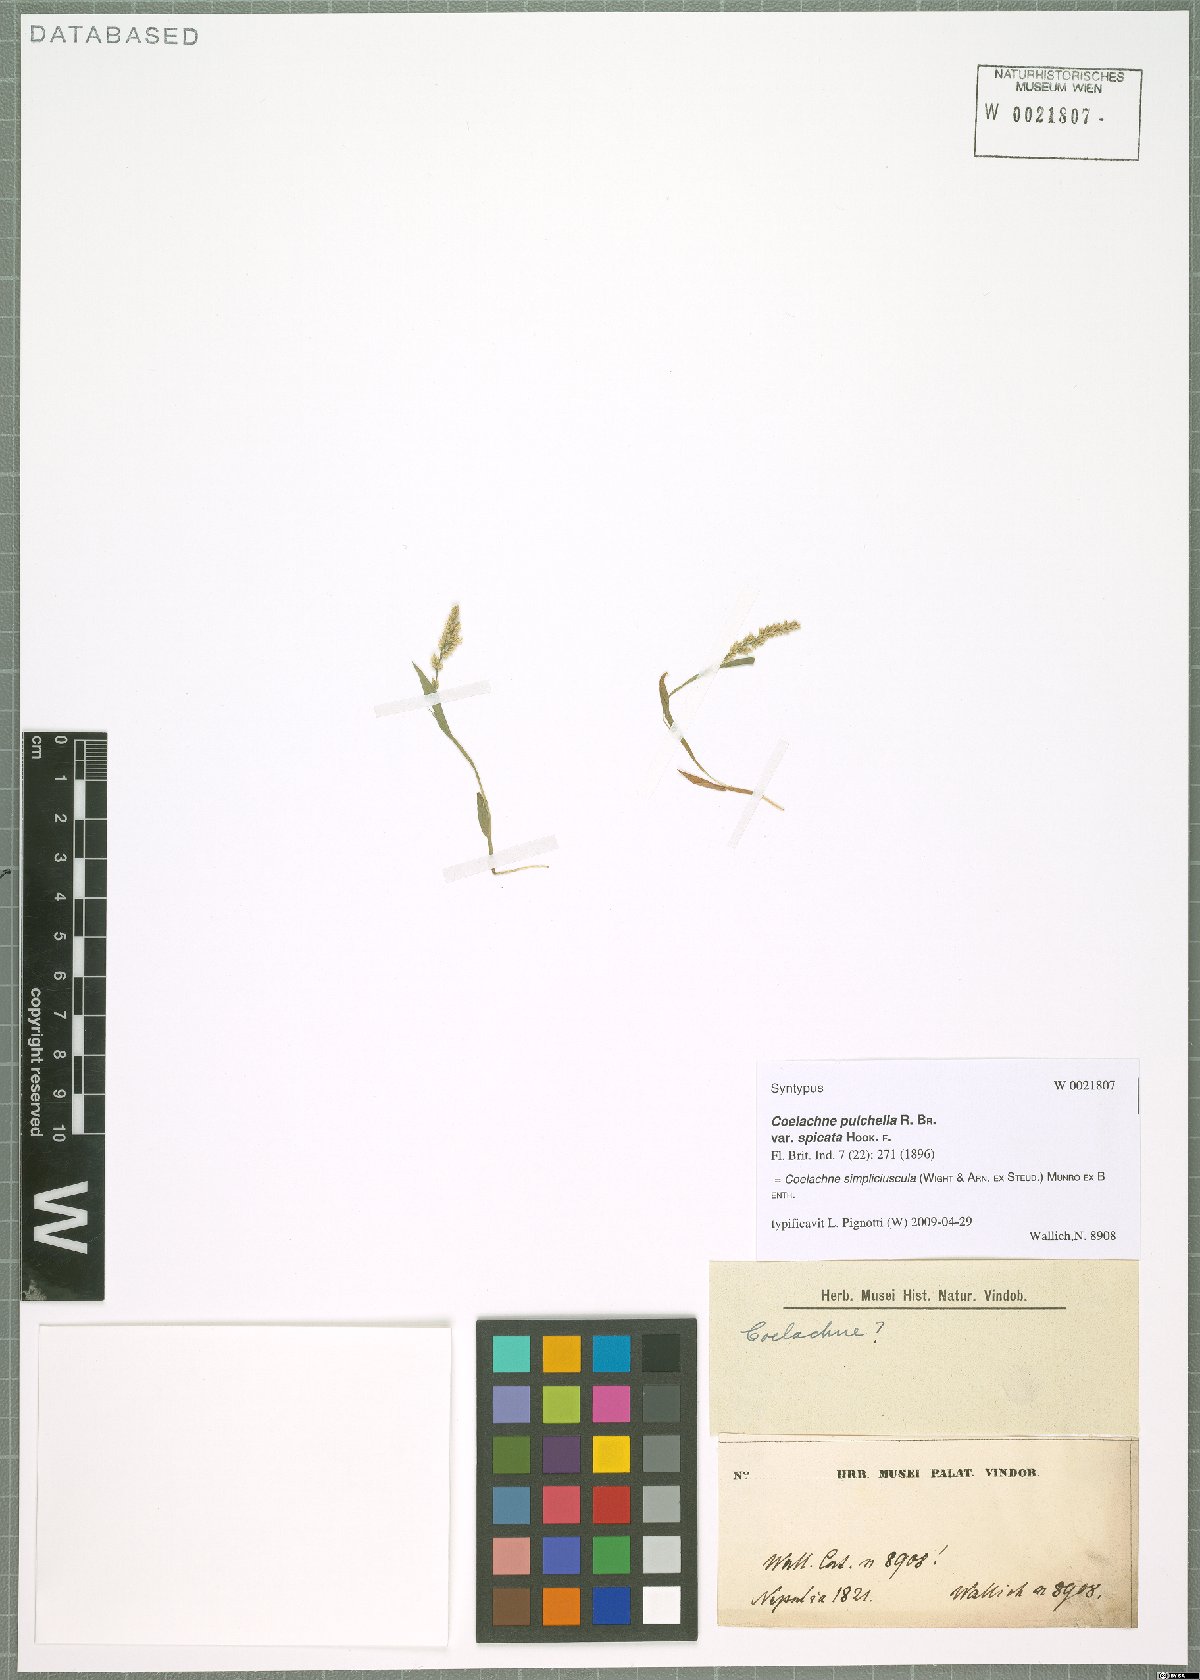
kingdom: Plantae
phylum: Tracheophyta
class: Liliopsida
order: Poales
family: Poaceae
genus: Coelachne
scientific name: Coelachne simpliciuscula
